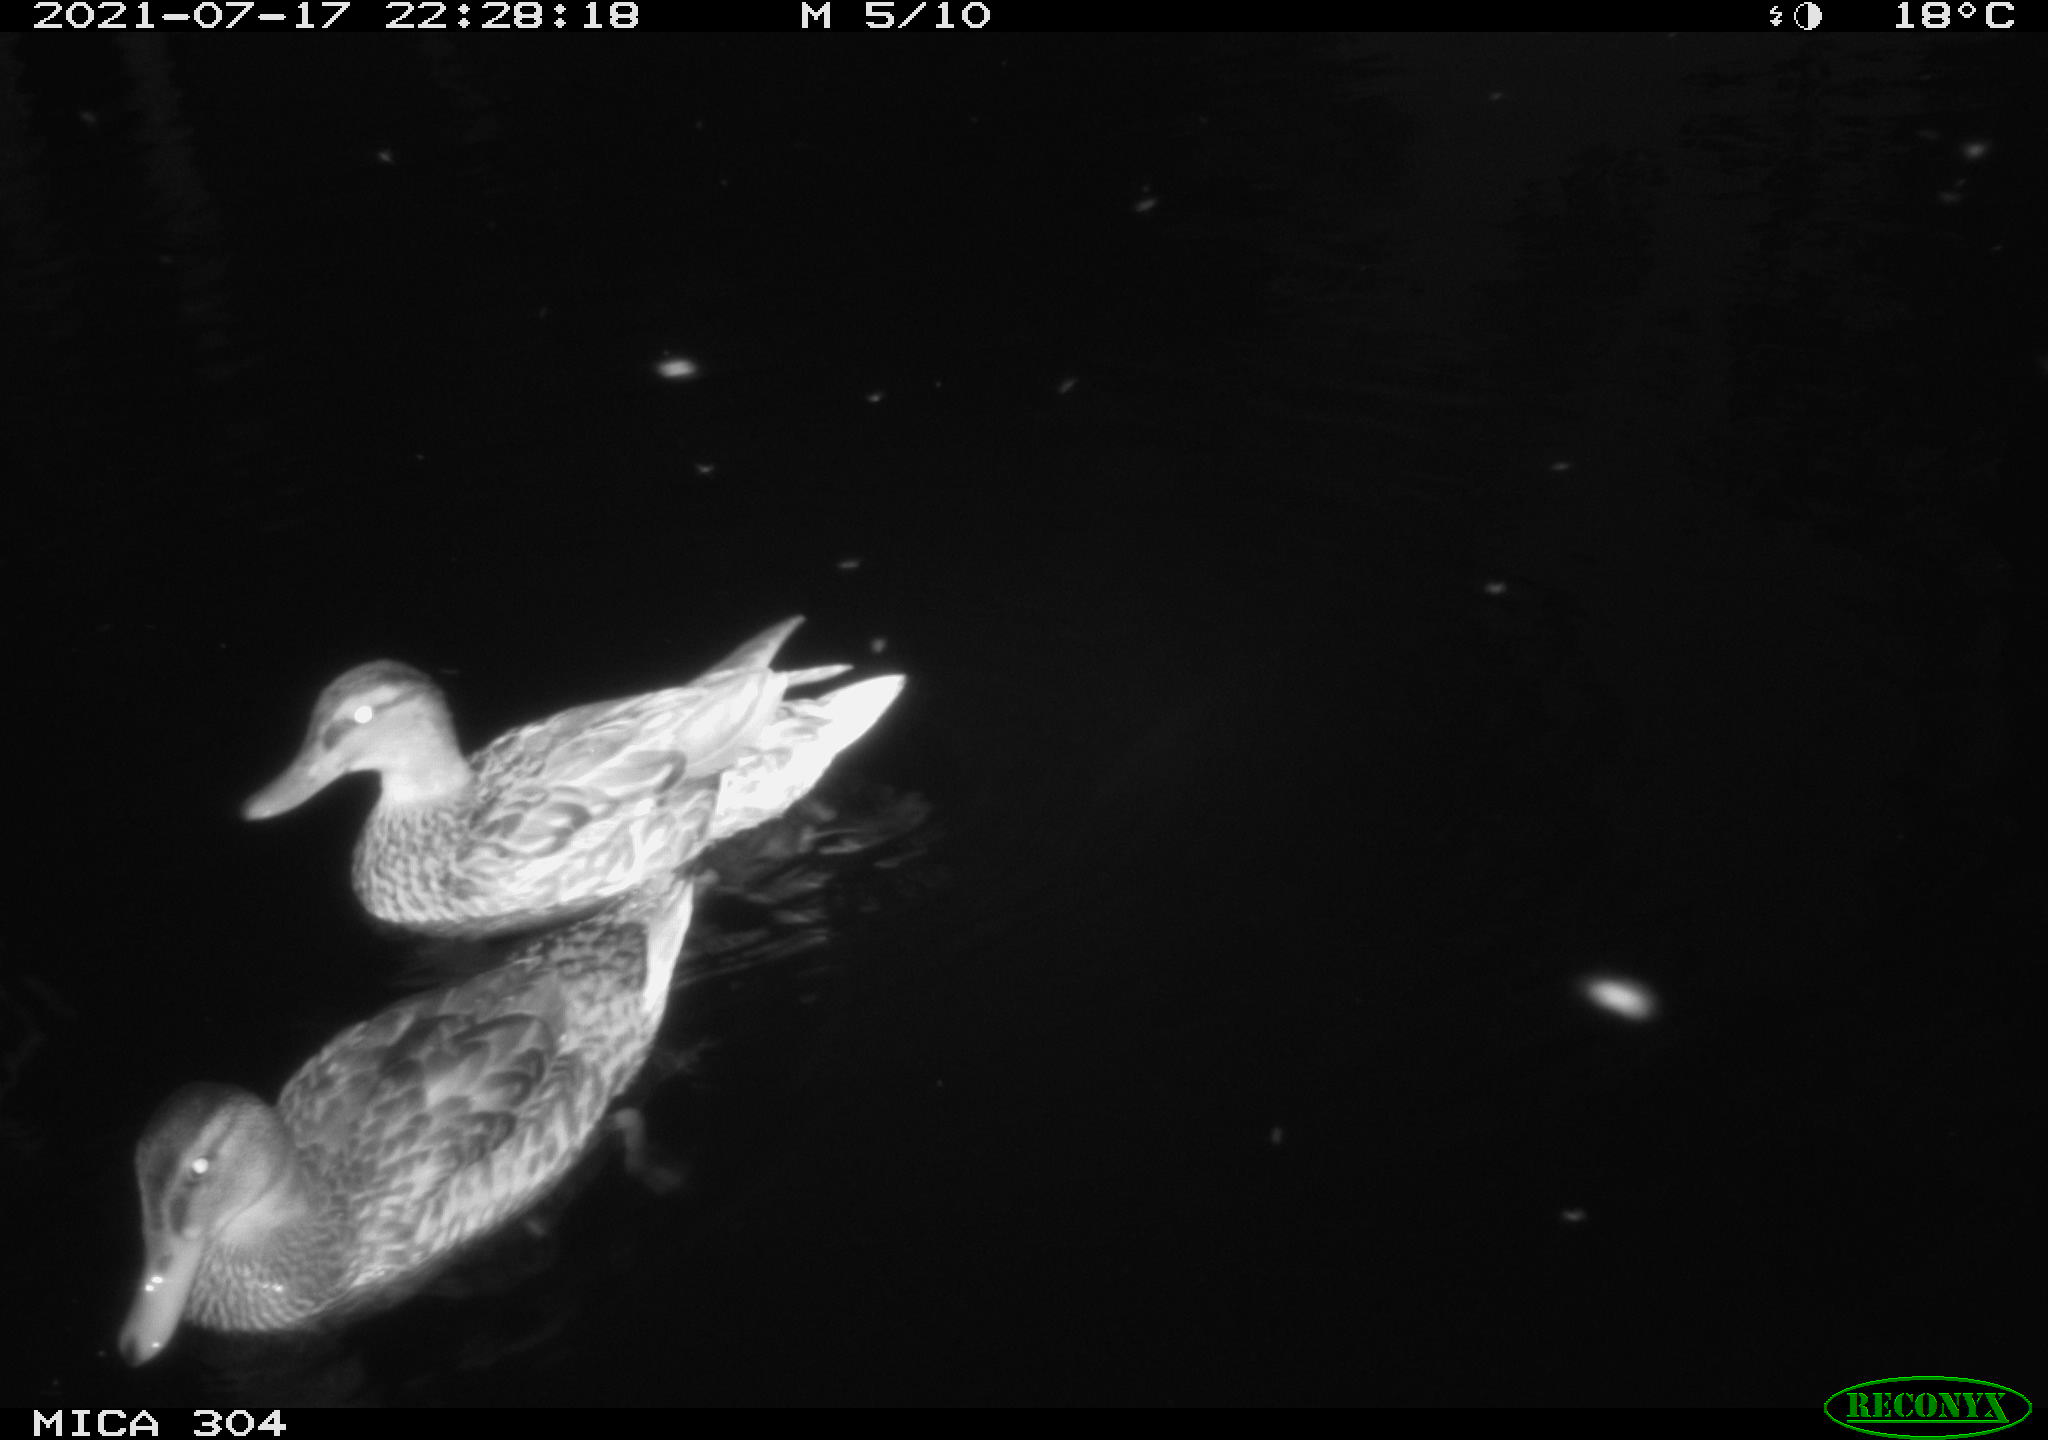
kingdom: Animalia
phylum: Chordata
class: Aves
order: Anseriformes
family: Anatidae
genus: Mareca
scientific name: Mareca strepera
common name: Gadwall
